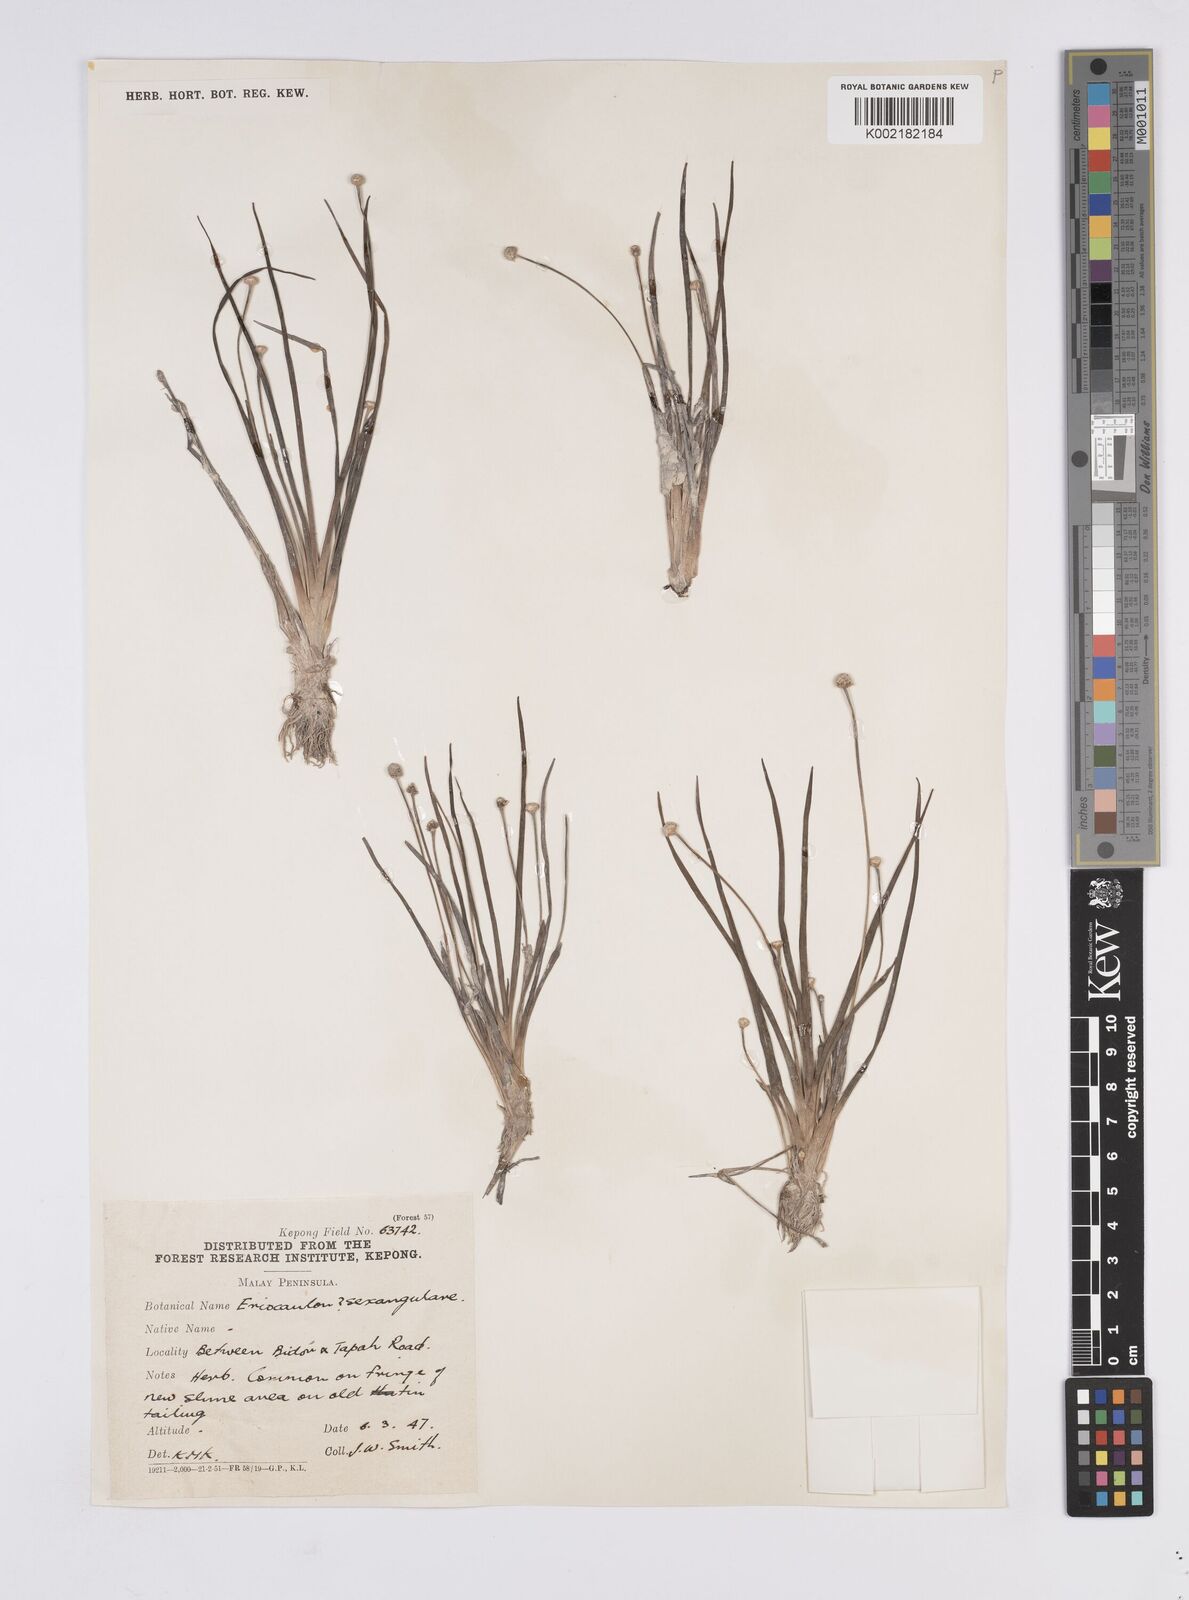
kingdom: Plantae
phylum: Tracheophyta
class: Liliopsida
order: Poales
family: Eriocaulaceae
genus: Eriocaulon
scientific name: Eriocaulon sexangulare
